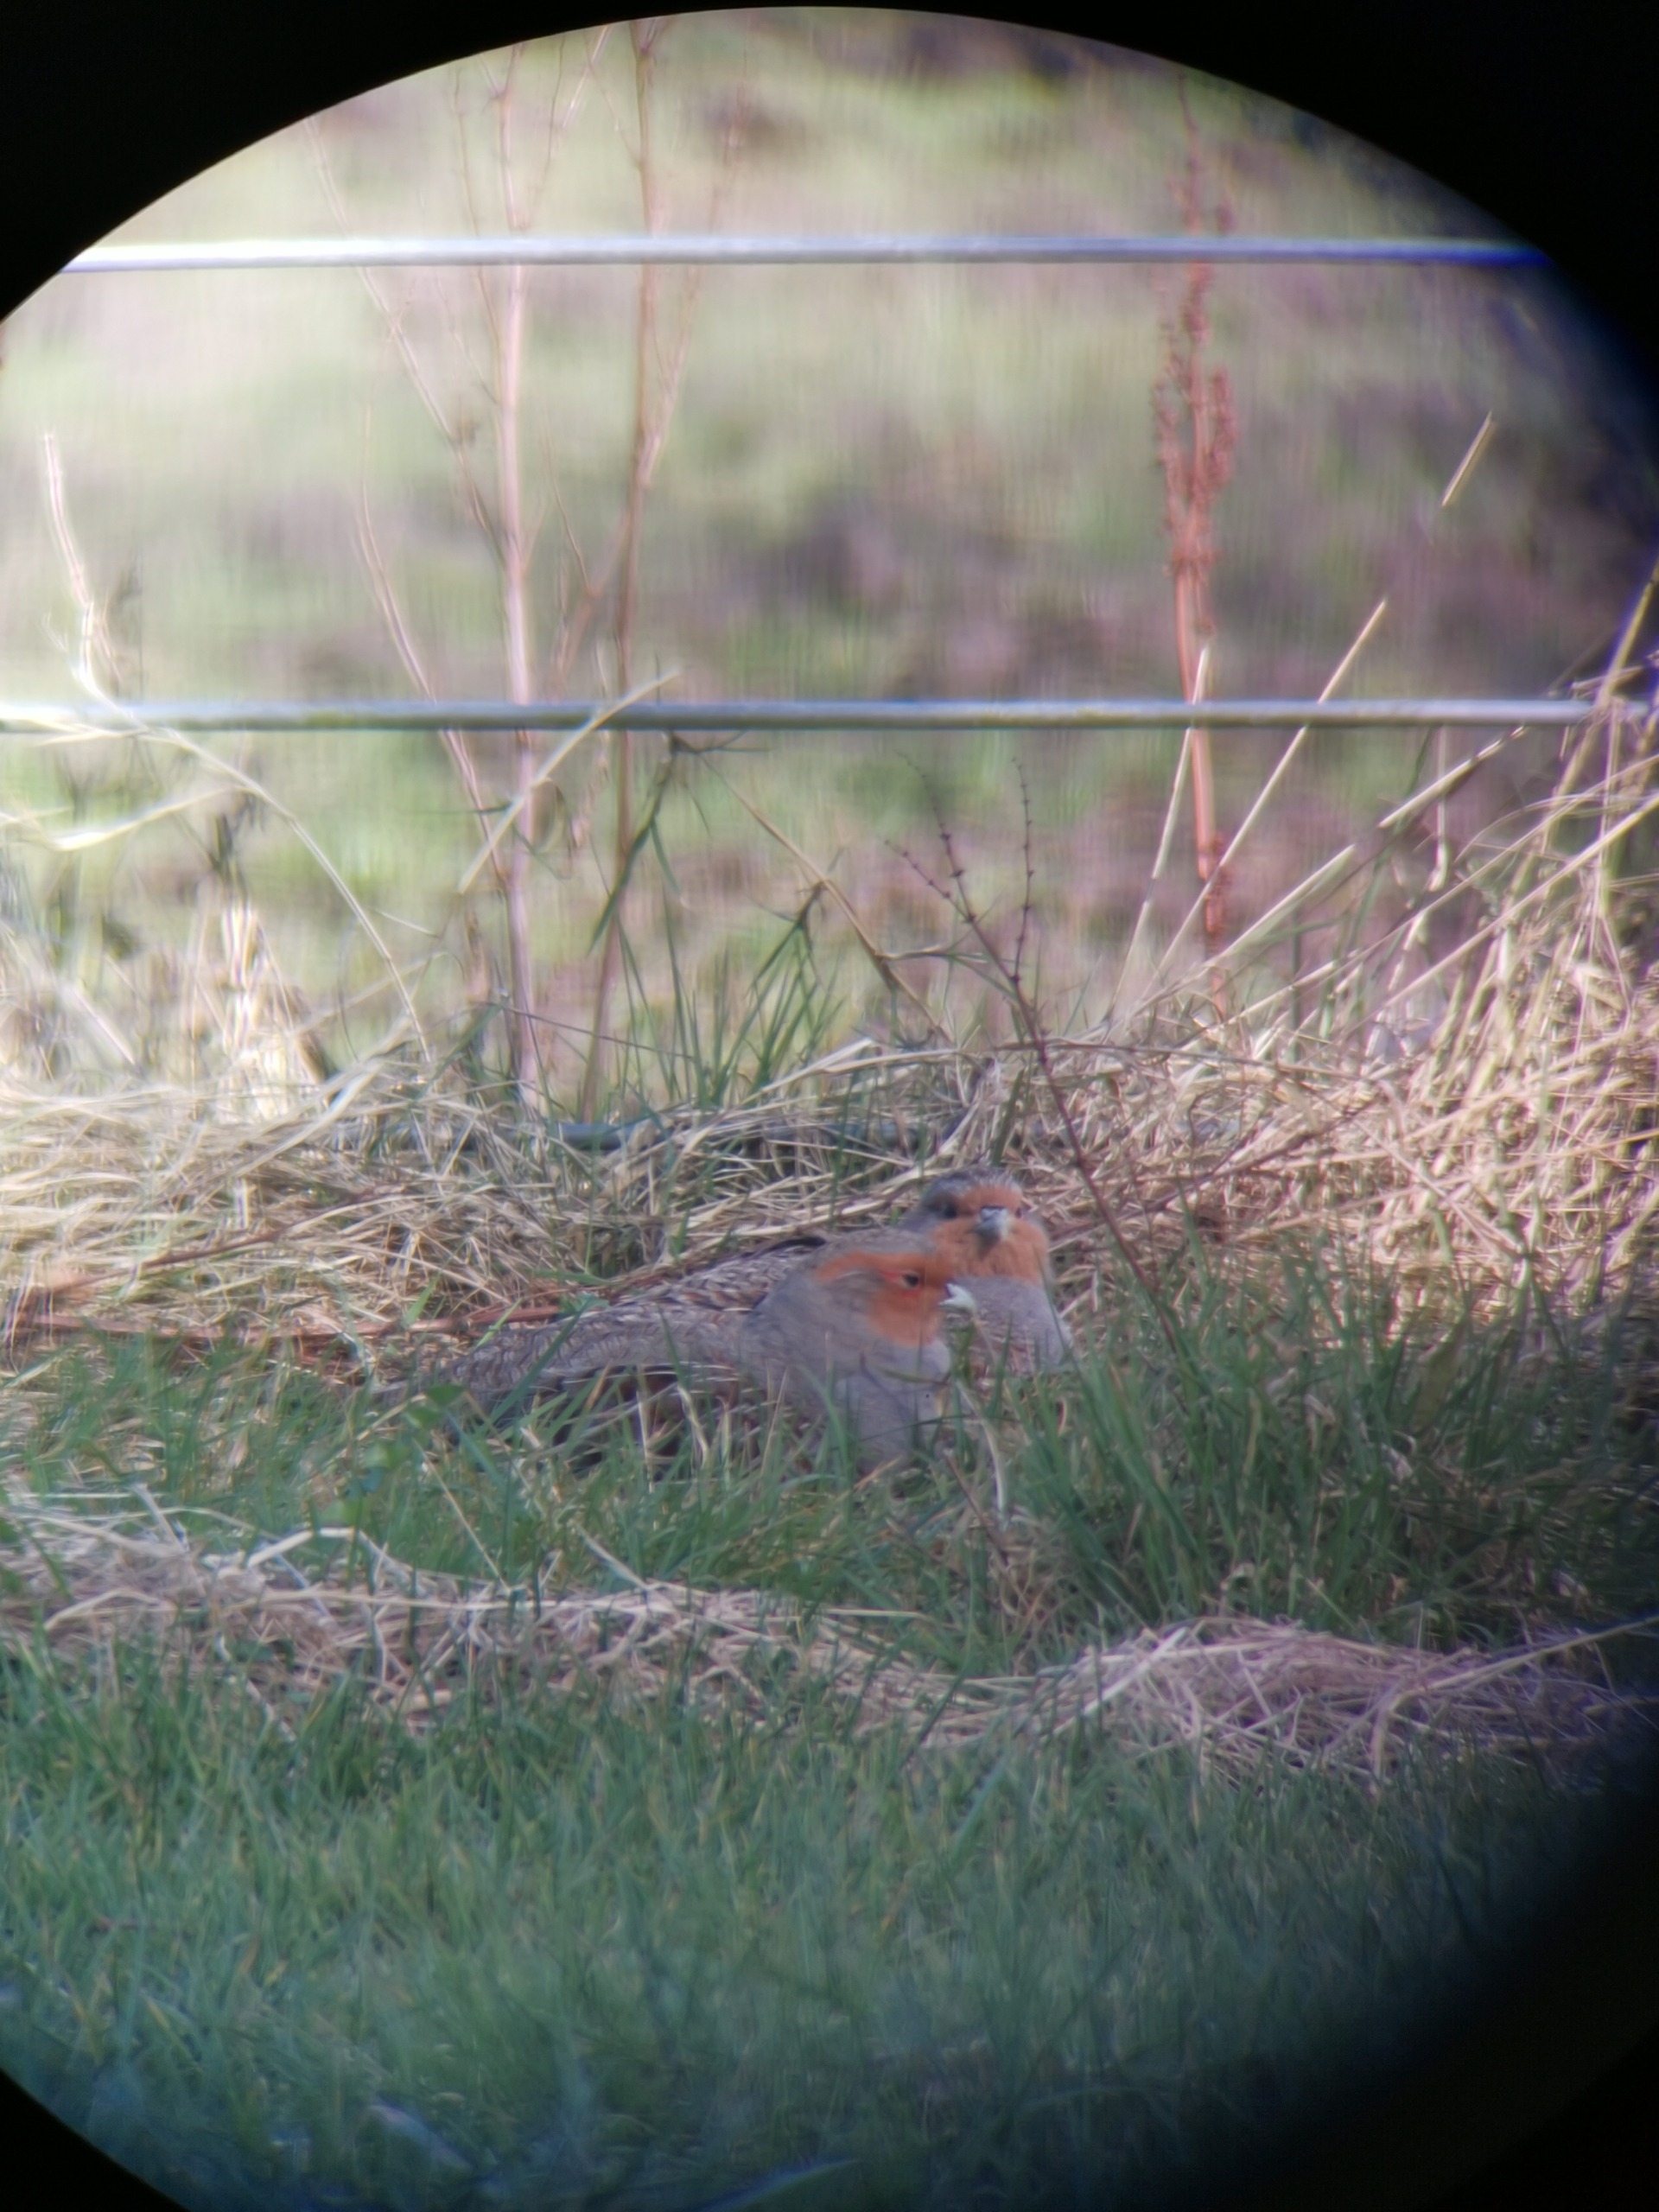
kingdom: Animalia
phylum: Chordata
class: Aves
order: Galliformes
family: Phasianidae
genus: Perdix
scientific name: Perdix perdix
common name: Agerhøne
